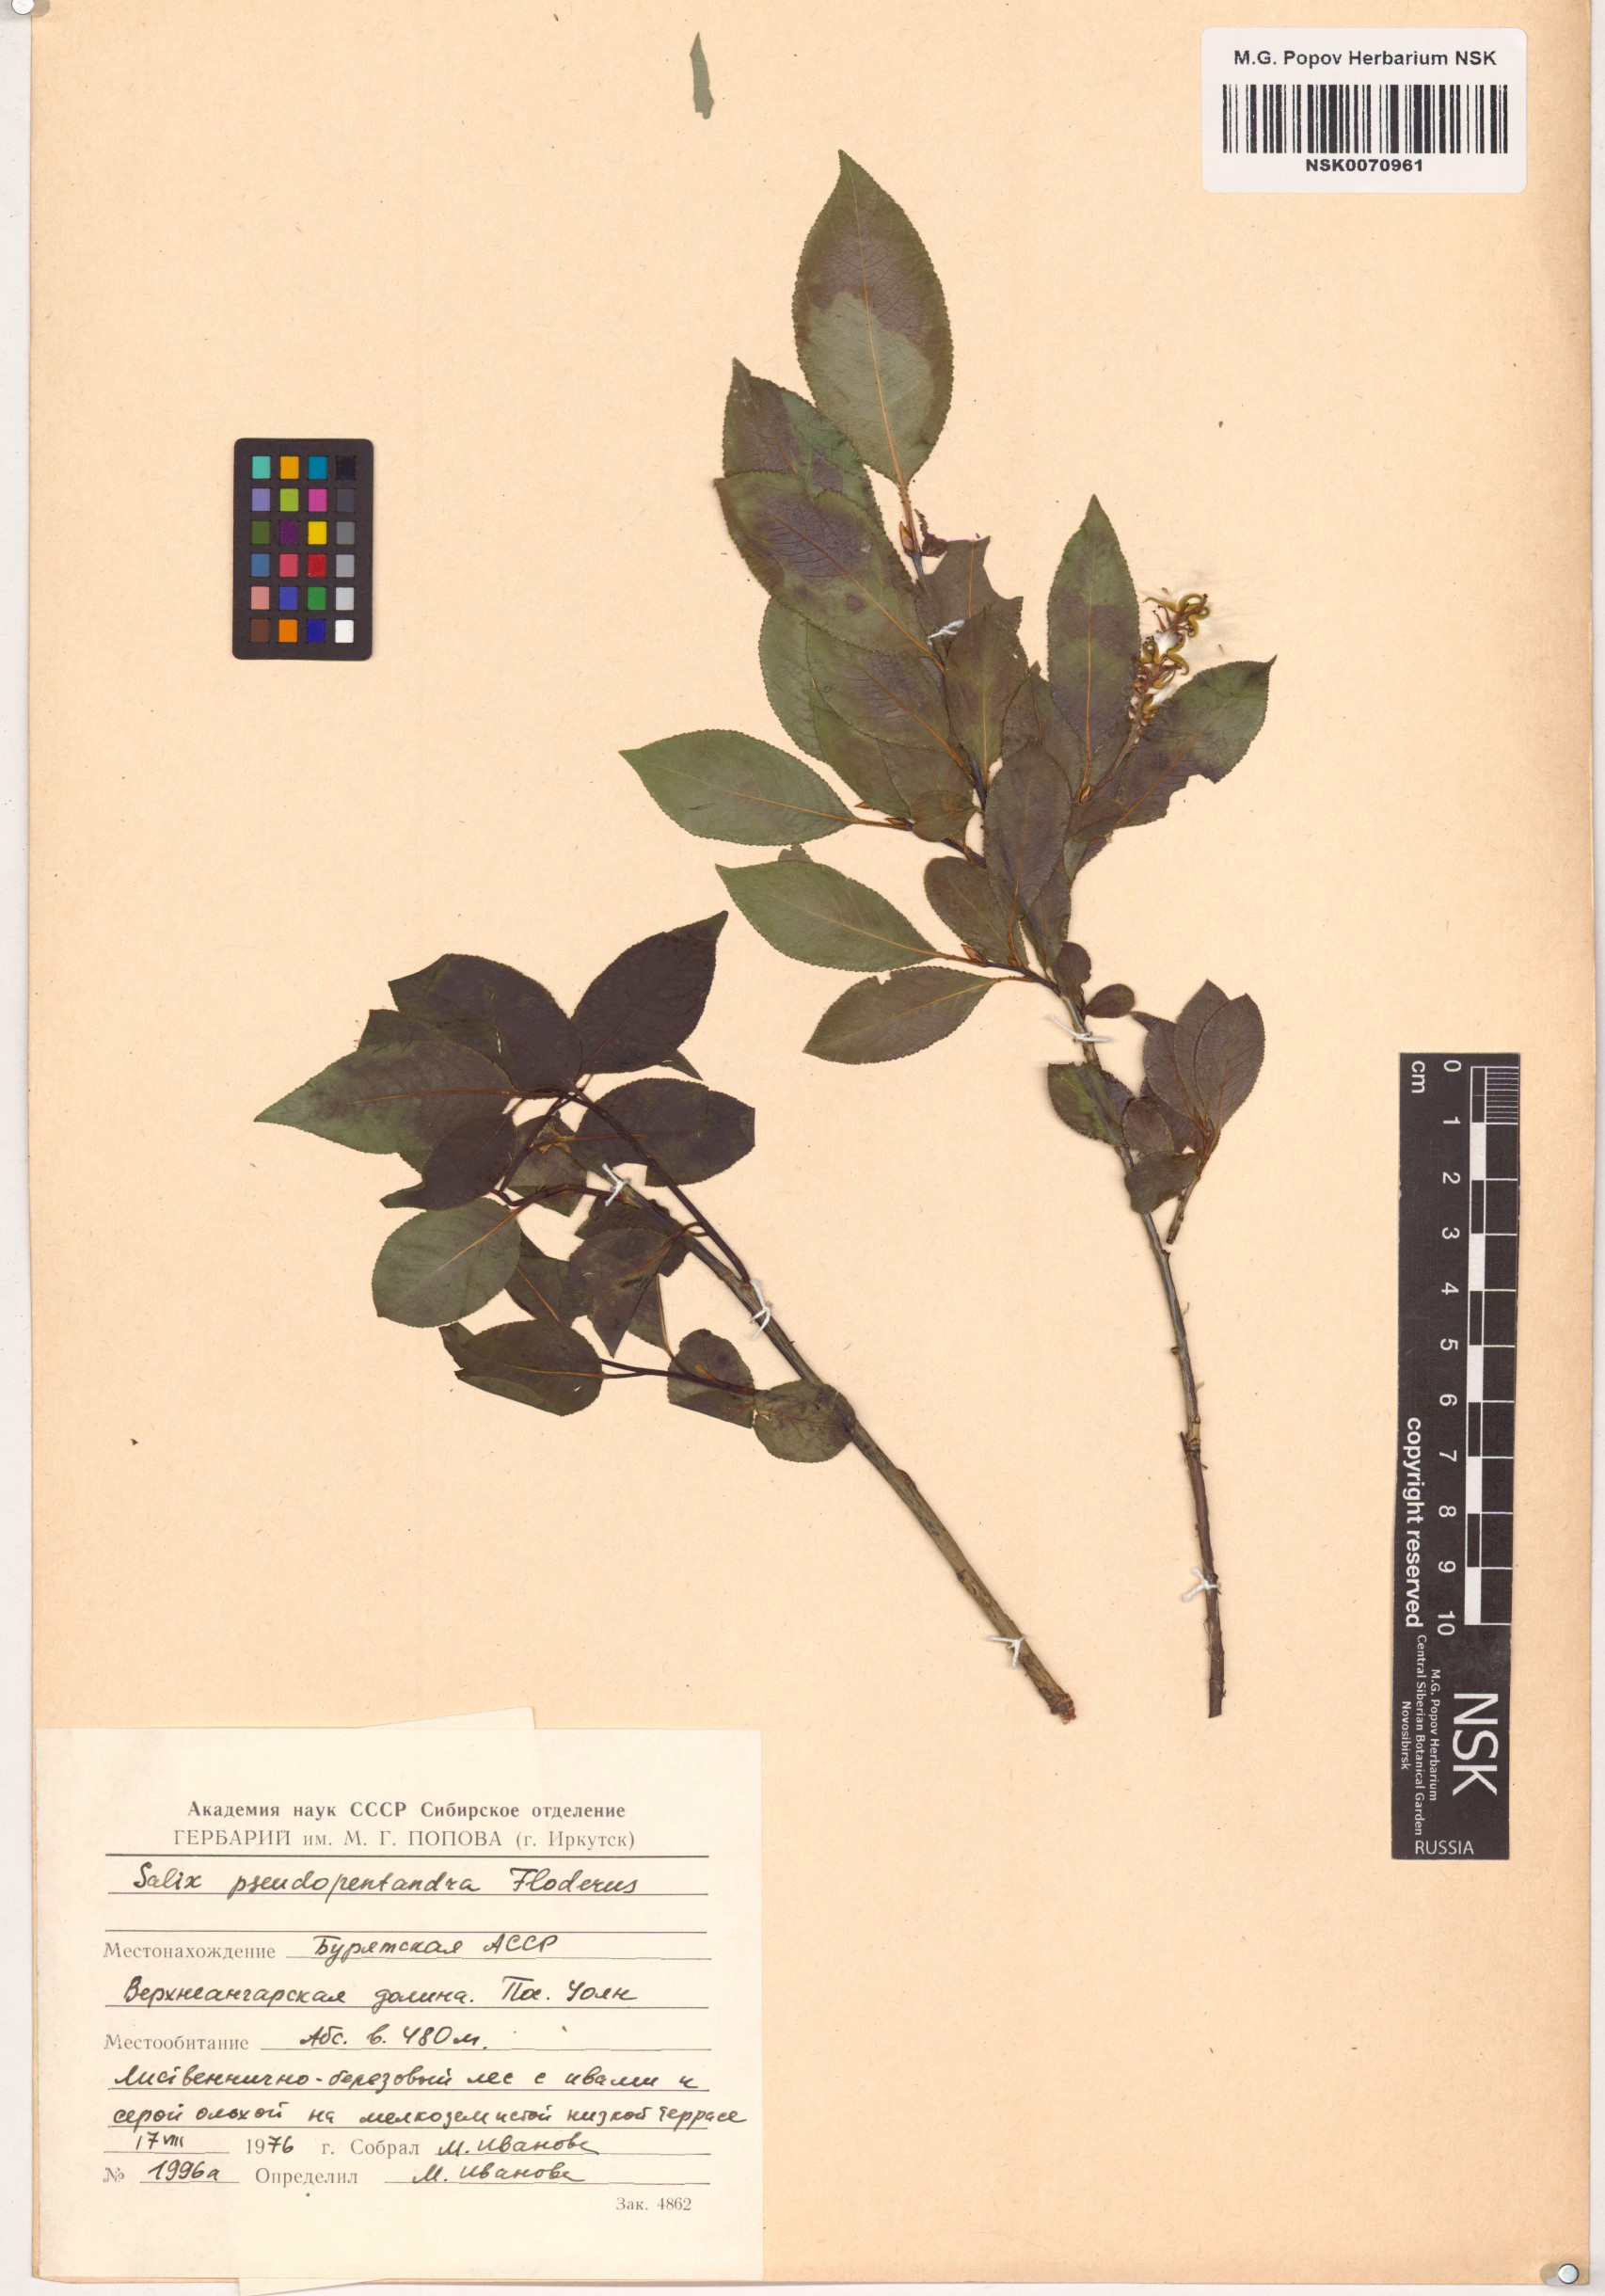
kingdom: Plantae
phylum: Tracheophyta
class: Magnoliopsida
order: Malpighiales
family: Salicaceae
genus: Salix
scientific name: Salix pseudopentandra
